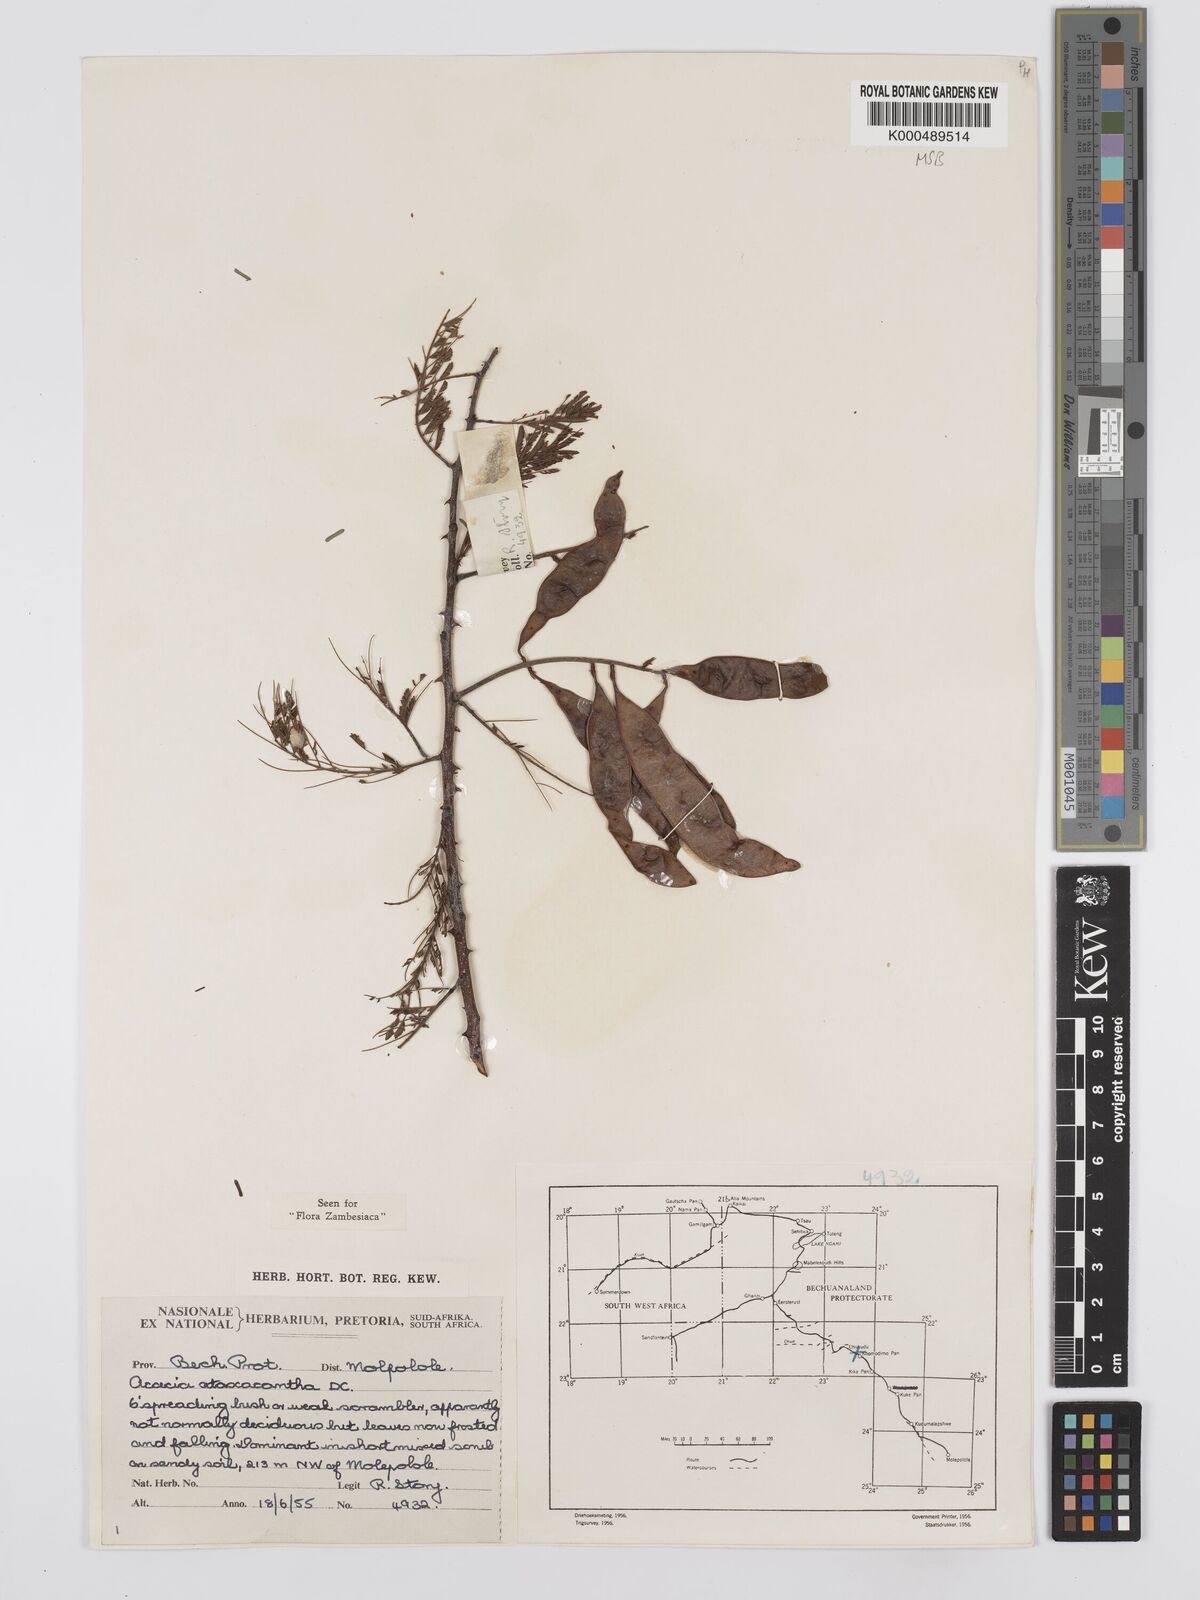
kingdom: Plantae
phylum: Tracheophyta
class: Magnoliopsida
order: Fabales
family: Fabaceae
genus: Senegalia
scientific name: Senegalia ataxacantha
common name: Flame acacia
